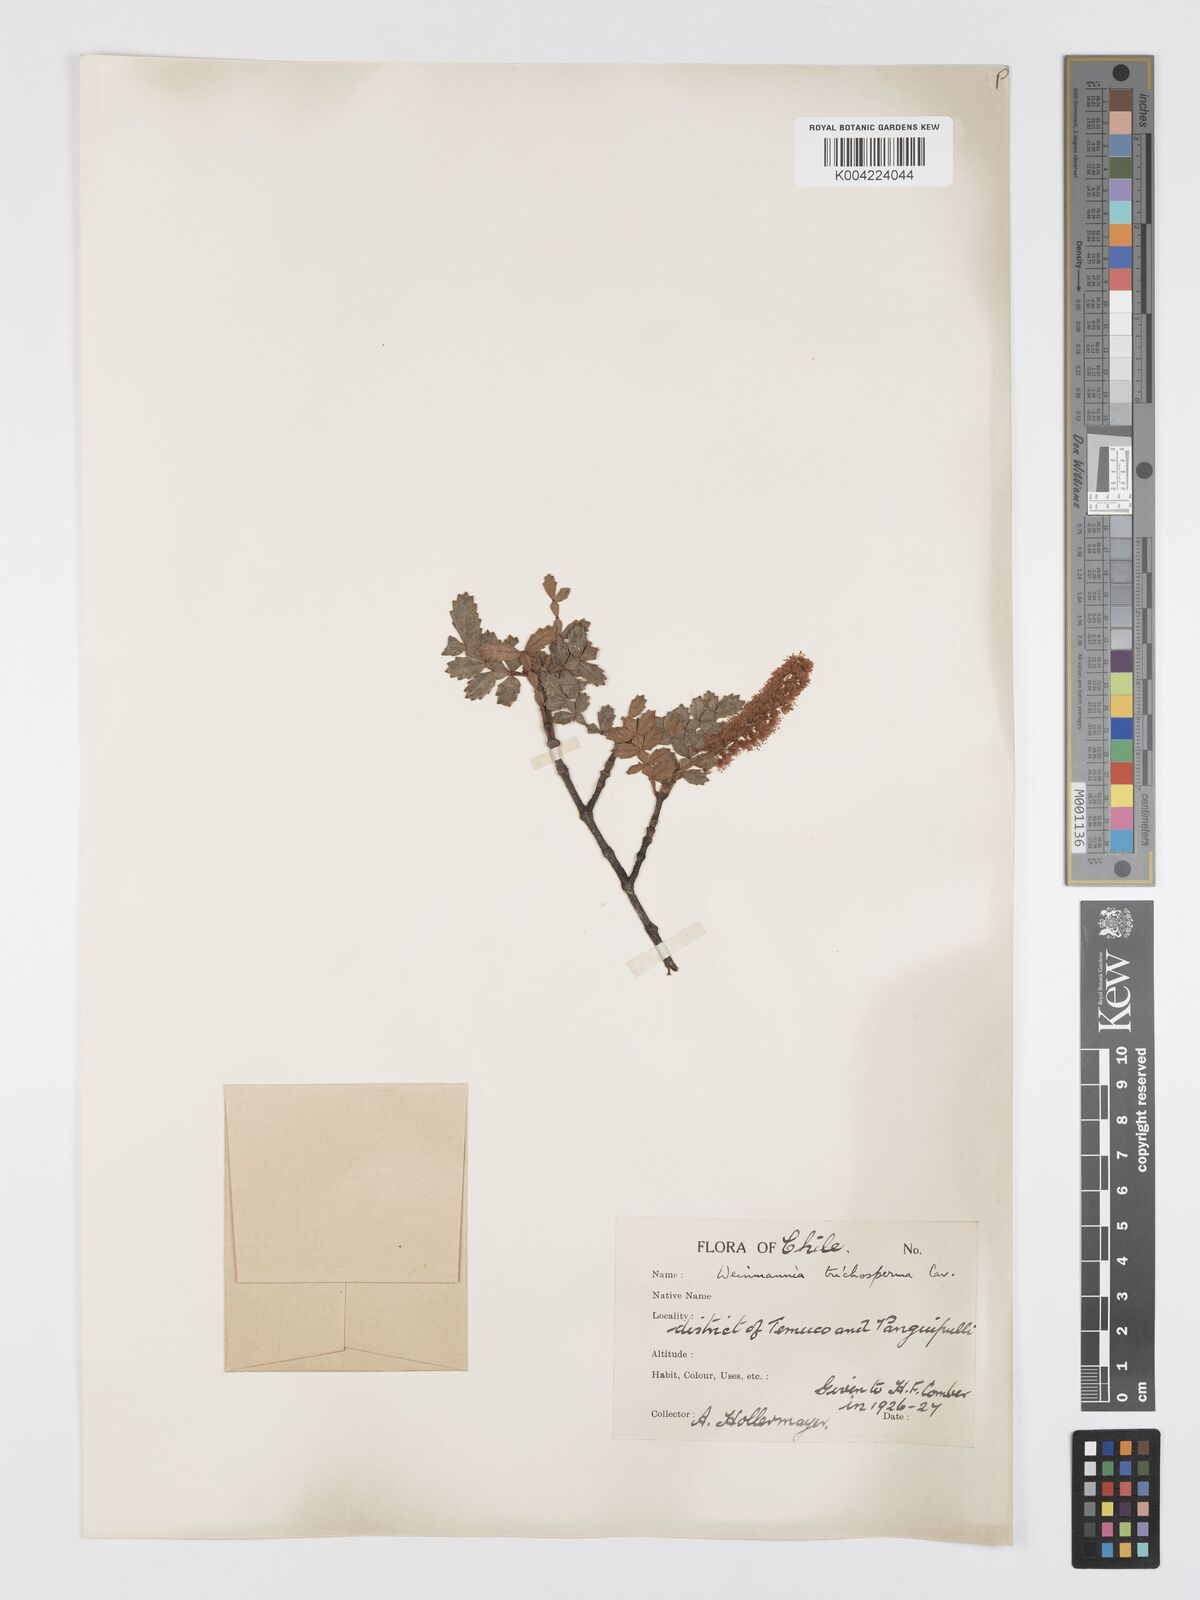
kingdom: Plantae
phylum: Tracheophyta
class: Magnoliopsida
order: Oxalidales
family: Cunoniaceae
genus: Weinmannia
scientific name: Weinmannia trichosperma
